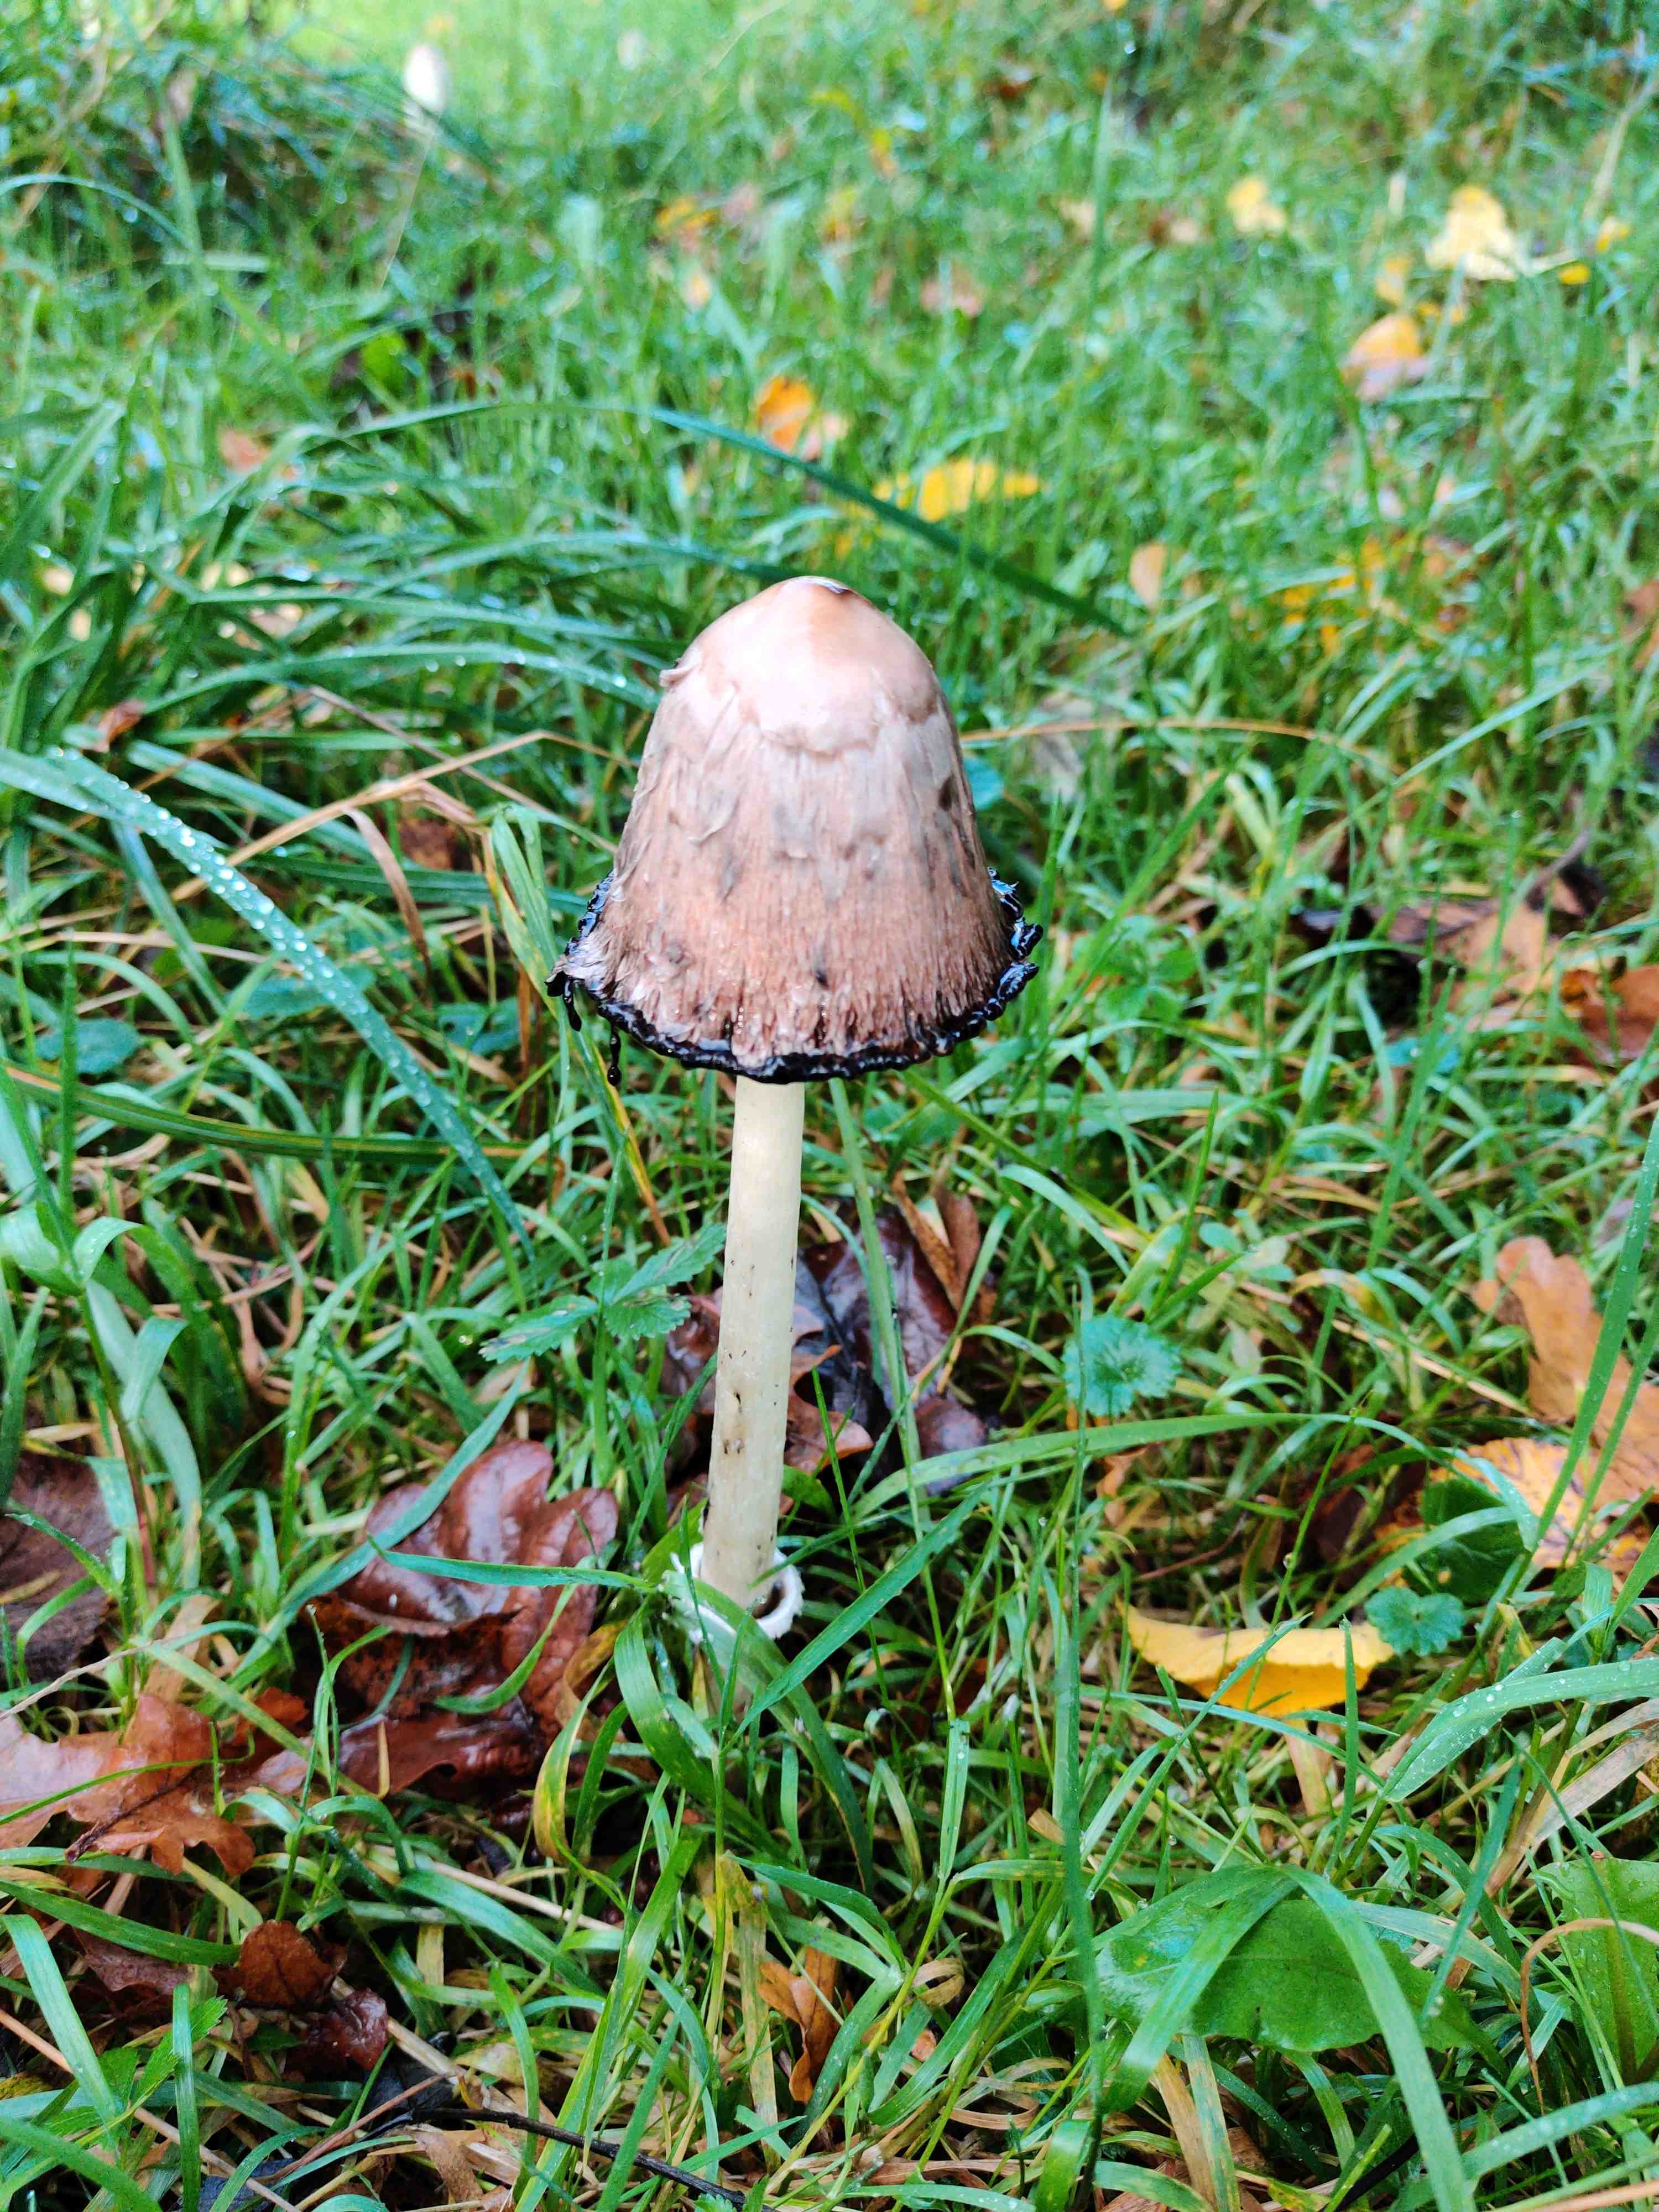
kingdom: Fungi
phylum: Basidiomycota
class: Agaricomycetes
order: Agaricales
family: Agaricaceae
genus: Coprinus
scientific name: Coprinus comatus
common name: stor parykhat
